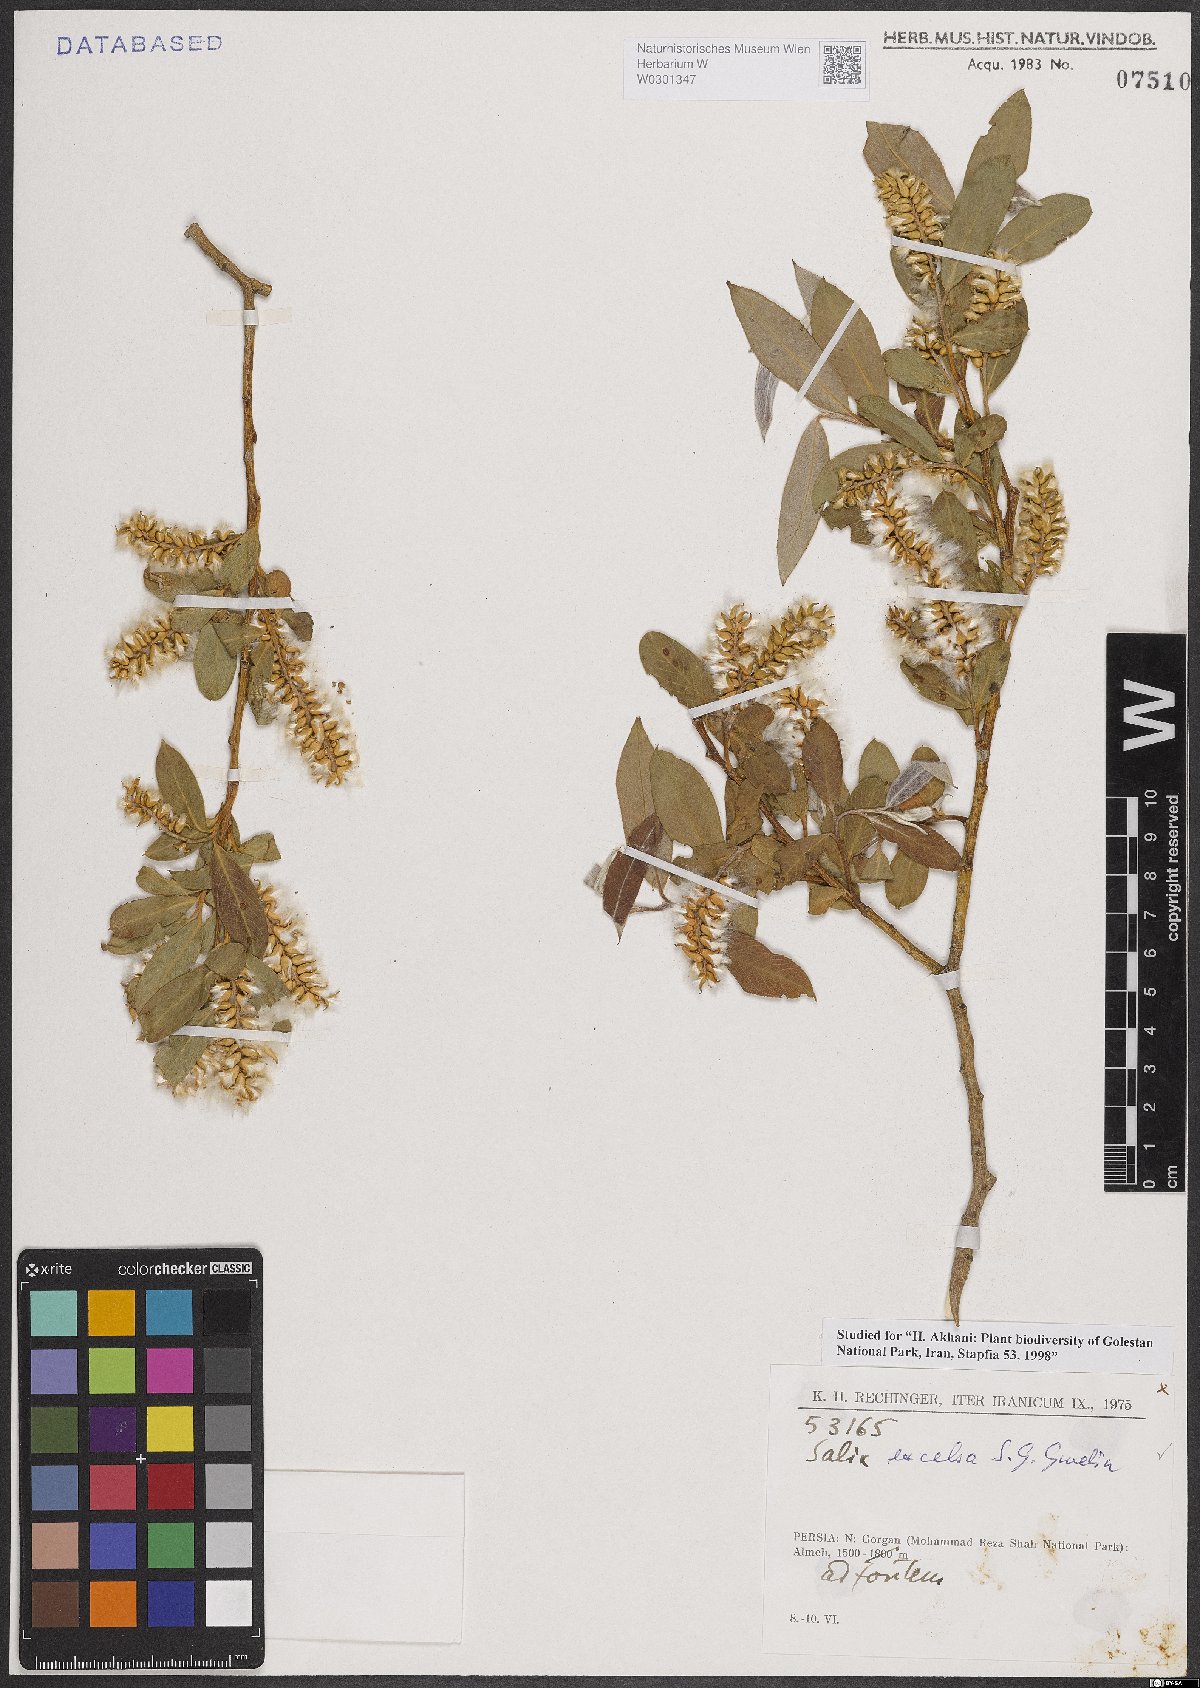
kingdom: Plantae
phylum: Tracheophyta
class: Magnoliopsida
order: Malpighiales
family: Salicaceae
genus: Salix
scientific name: Salix excelsa
